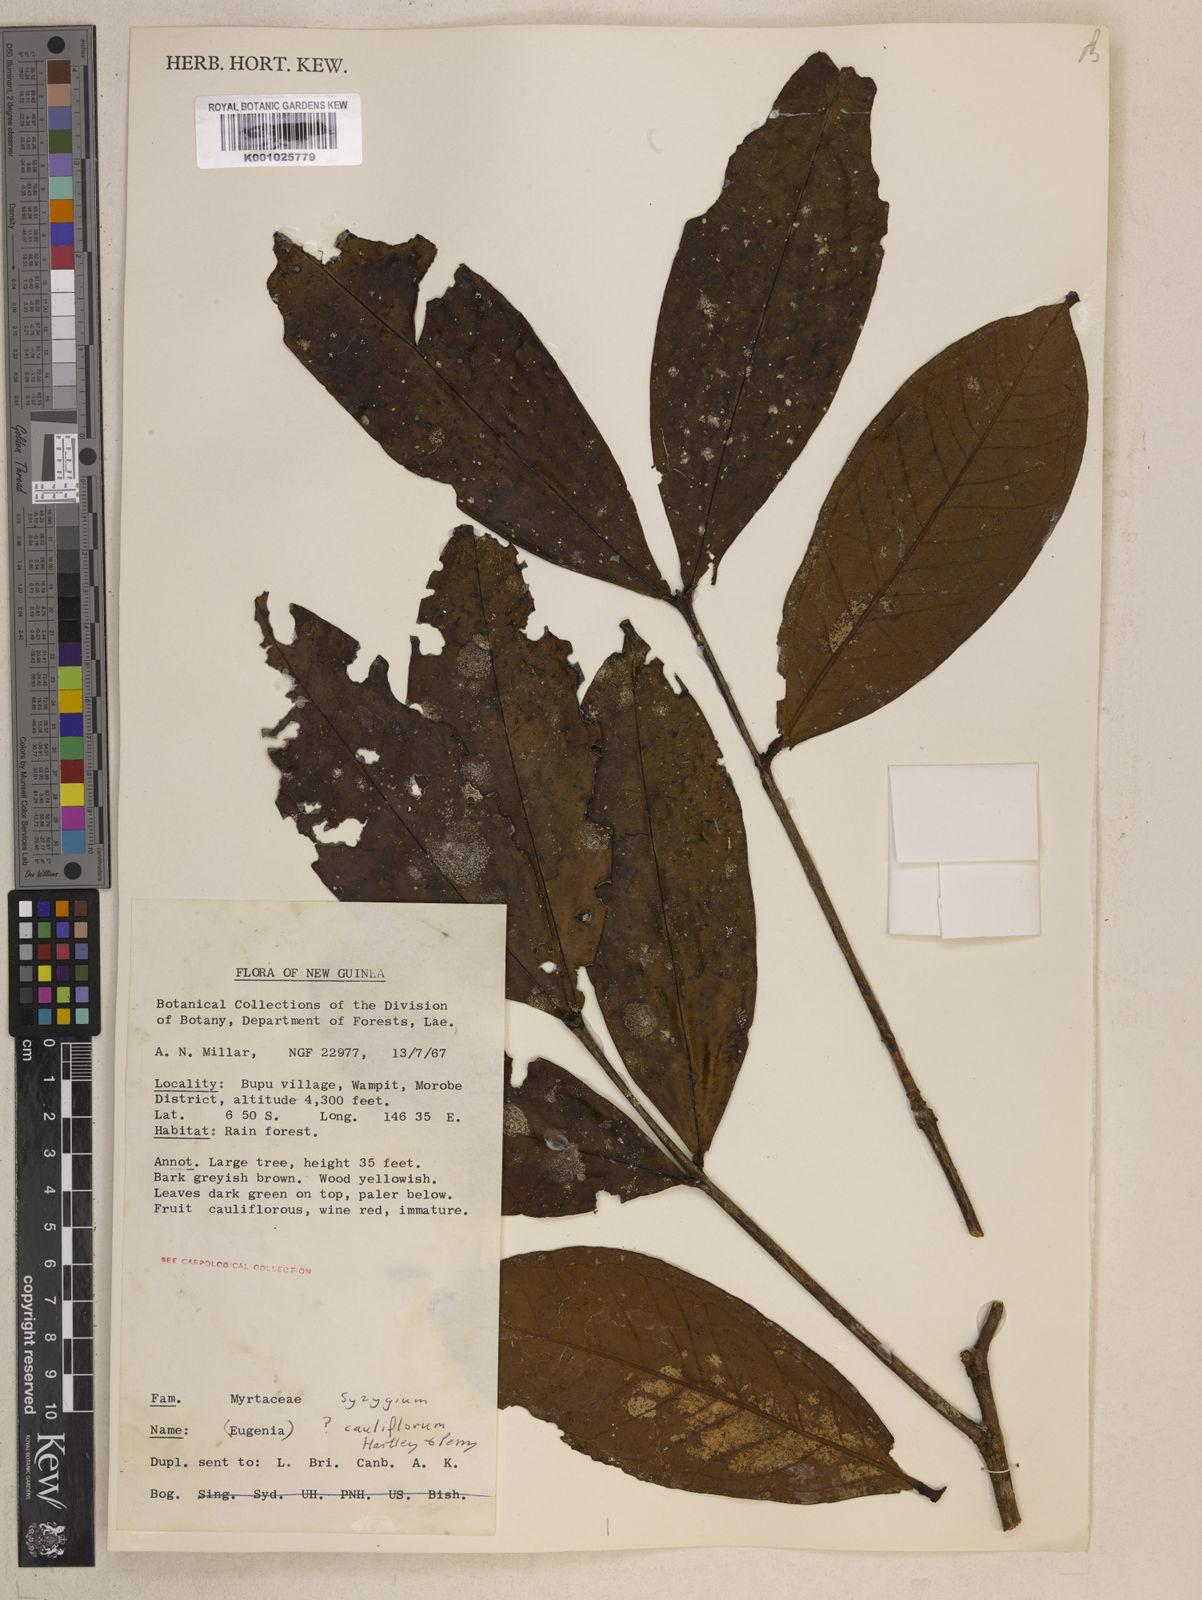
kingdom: Plantae
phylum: Tracheophyta
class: Magnoliopsida
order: Myrtales
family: Myrtaceae
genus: Syzygium
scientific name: Syzygium cauliflorum
